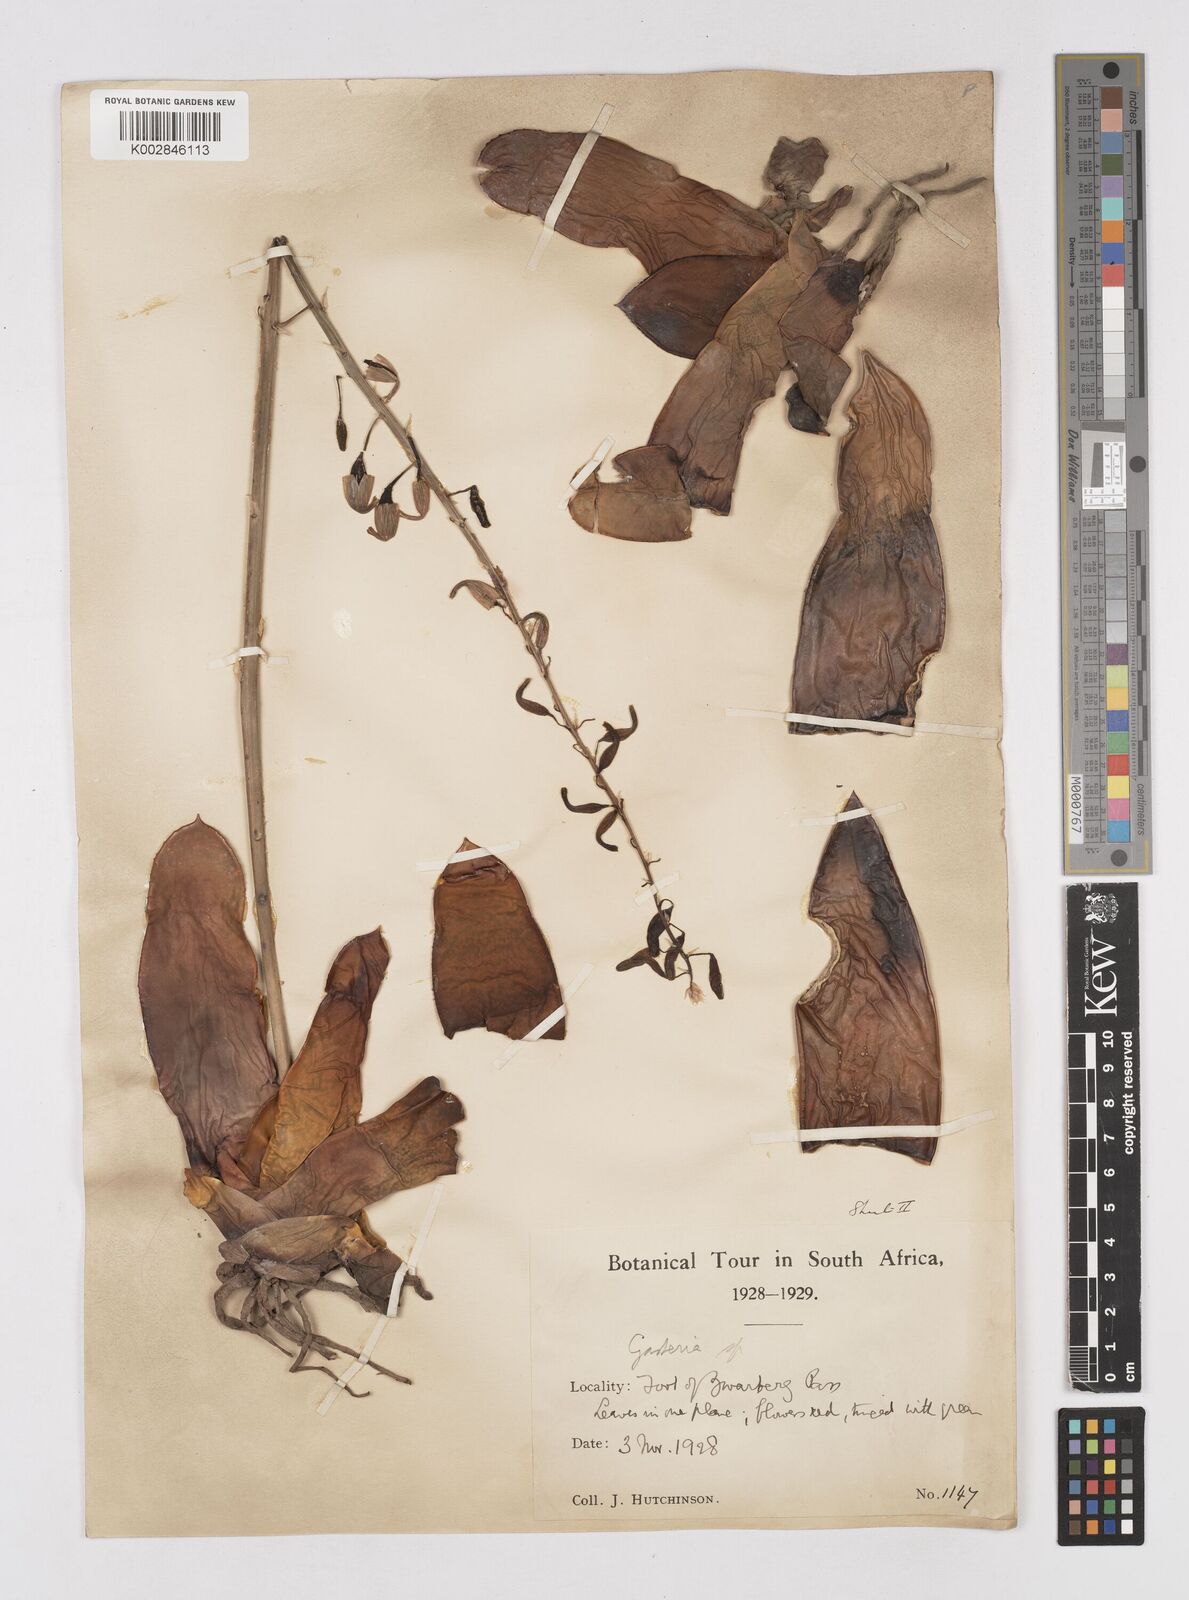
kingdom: Plantae
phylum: Tracheophyta
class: Liliopsida
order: Asparagales
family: Asphodelaceae
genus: Gasteria
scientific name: Gasteria
